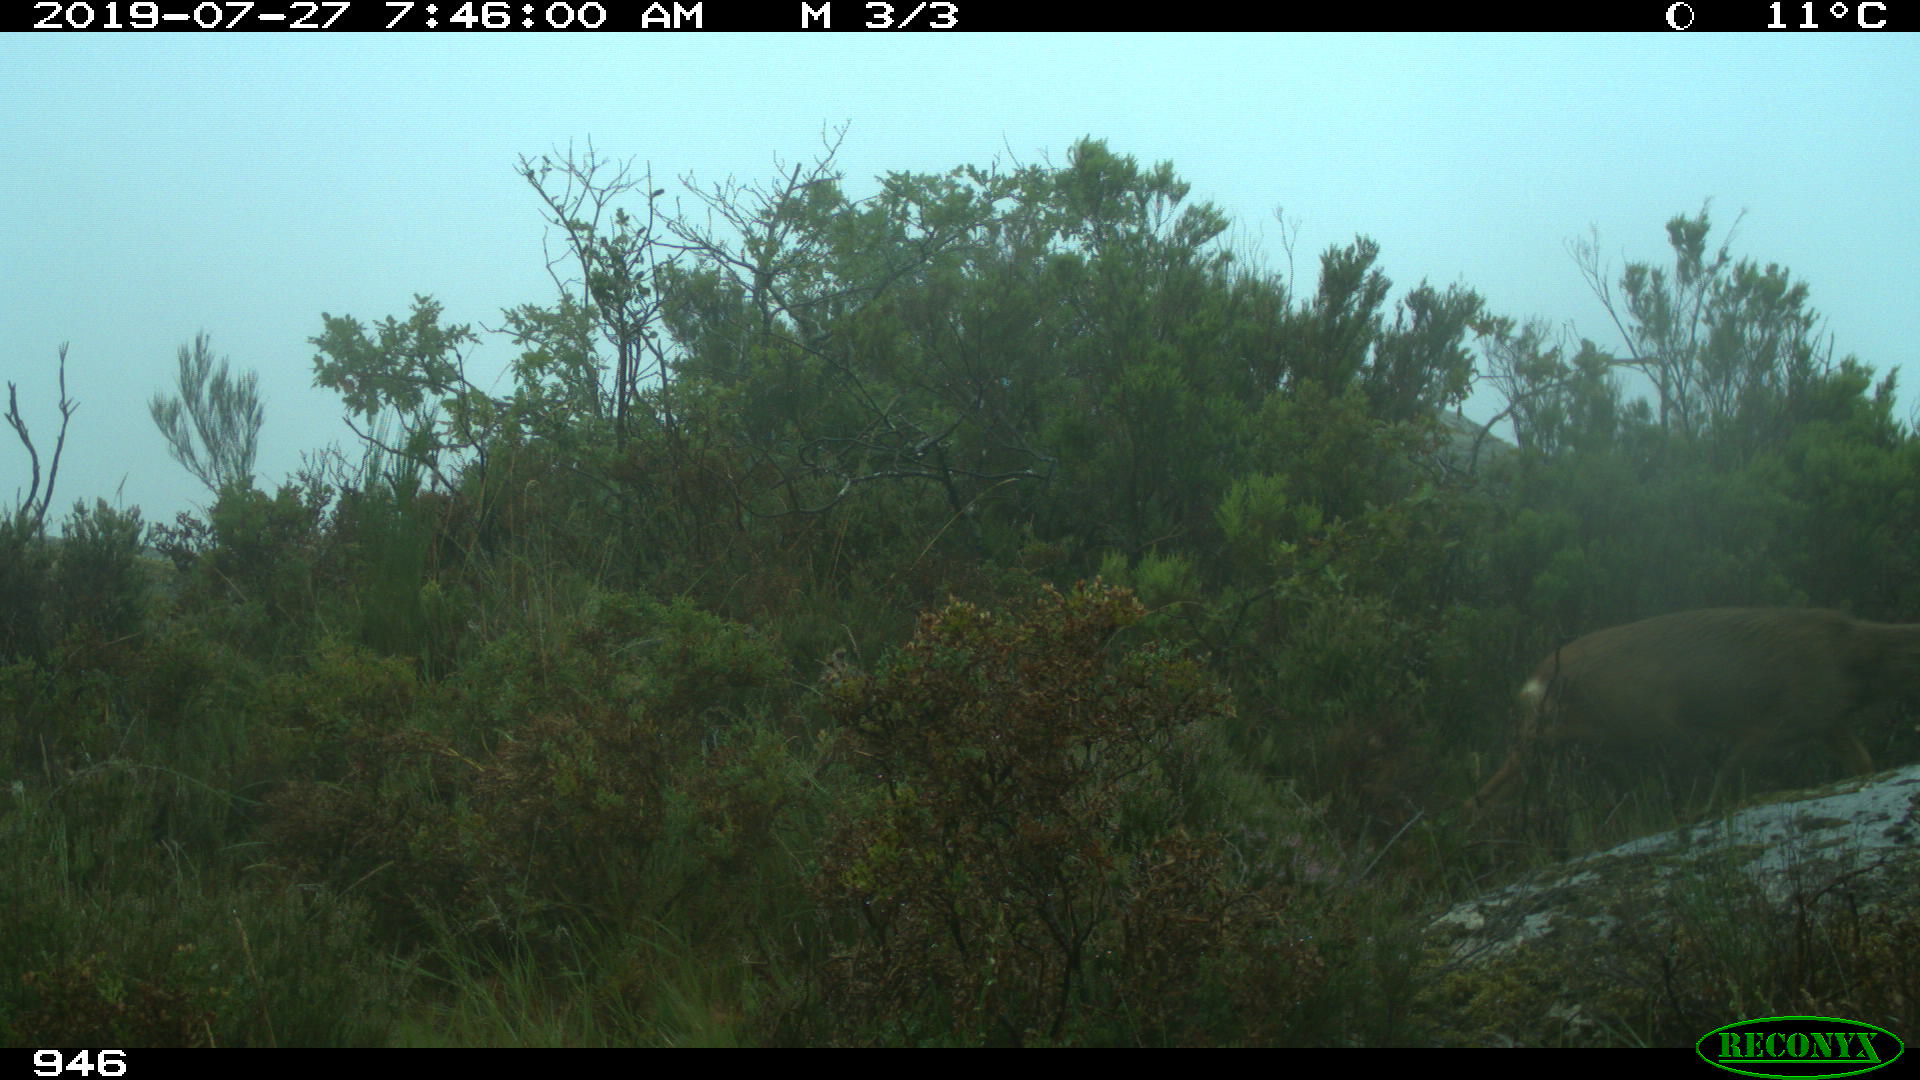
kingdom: Animalia
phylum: Chordata
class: Mammalia
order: Artiodactyla
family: Cervidae
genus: Capreolus
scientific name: Capreolus capreolus
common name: Western roe deer
